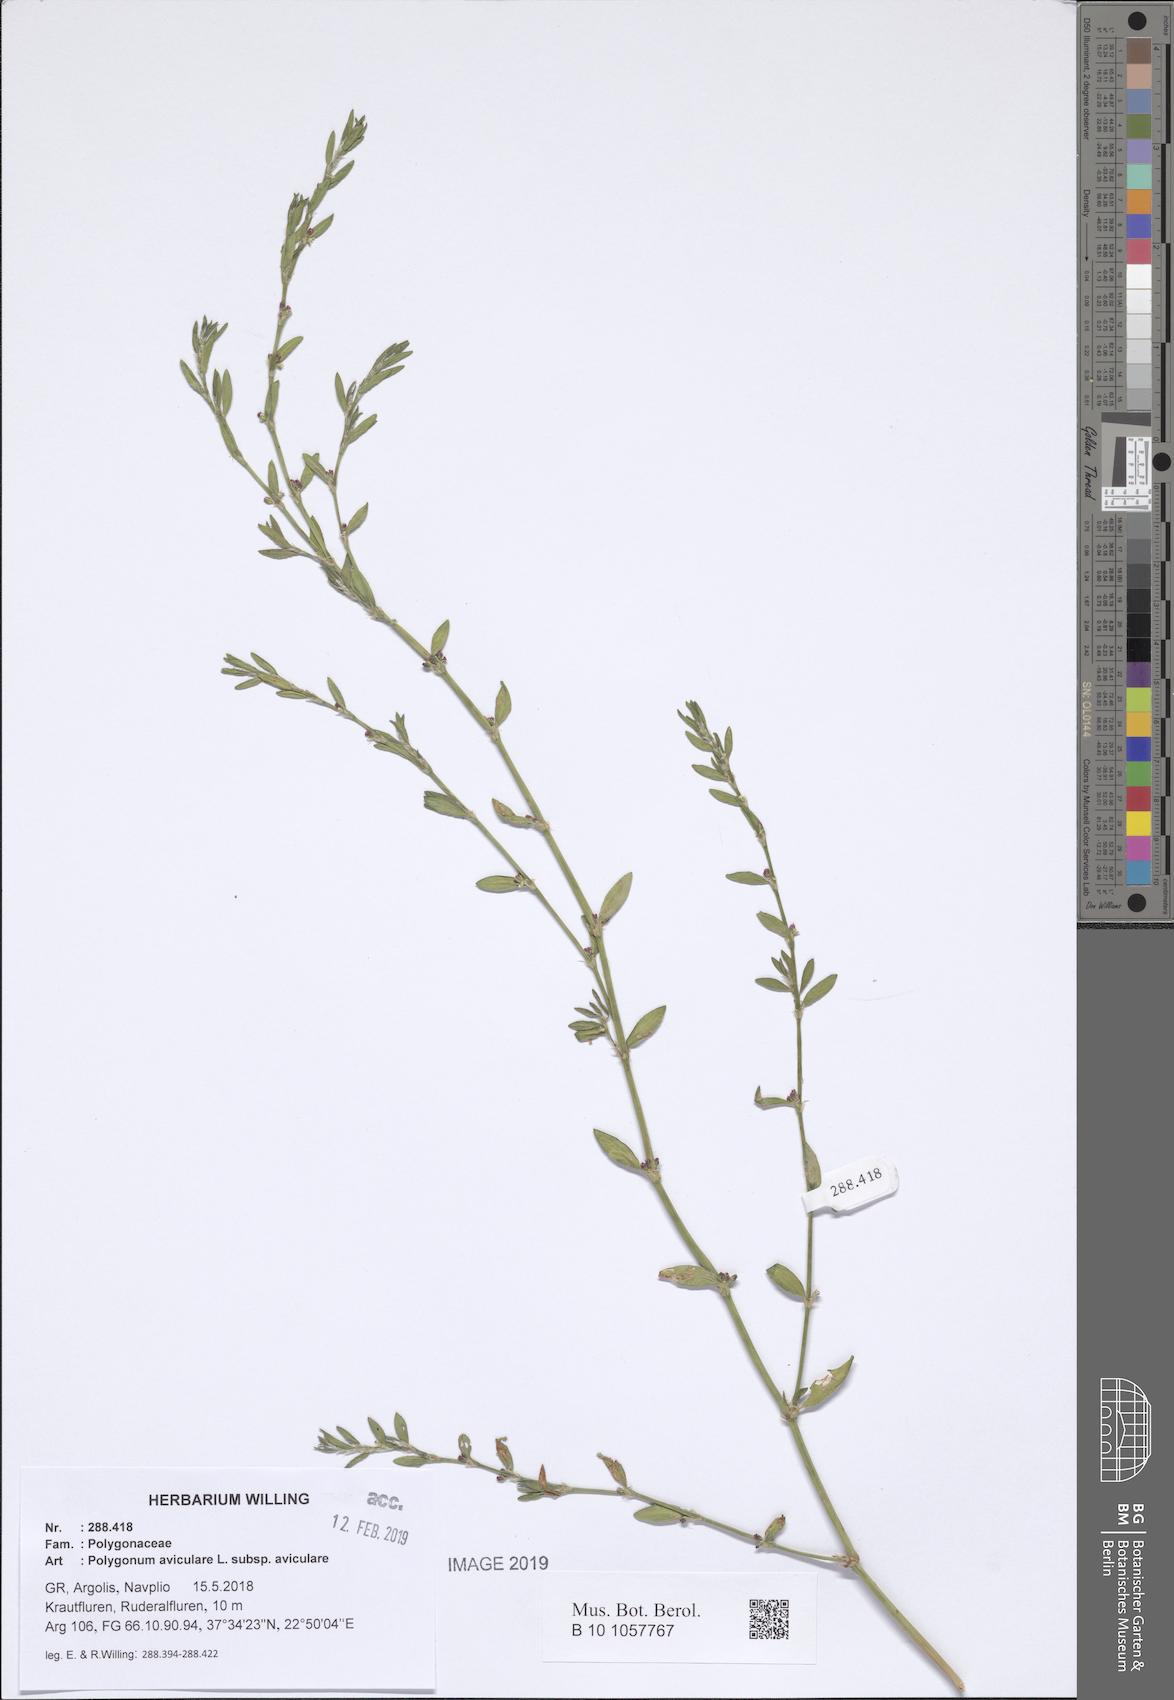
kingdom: Plantae
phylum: Tracheophyta
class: Magnoliopsida
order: Caryophyllales
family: Polygonaceae
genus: Polygonum
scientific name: Polygonum aviculare
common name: Prostrate knotweed
